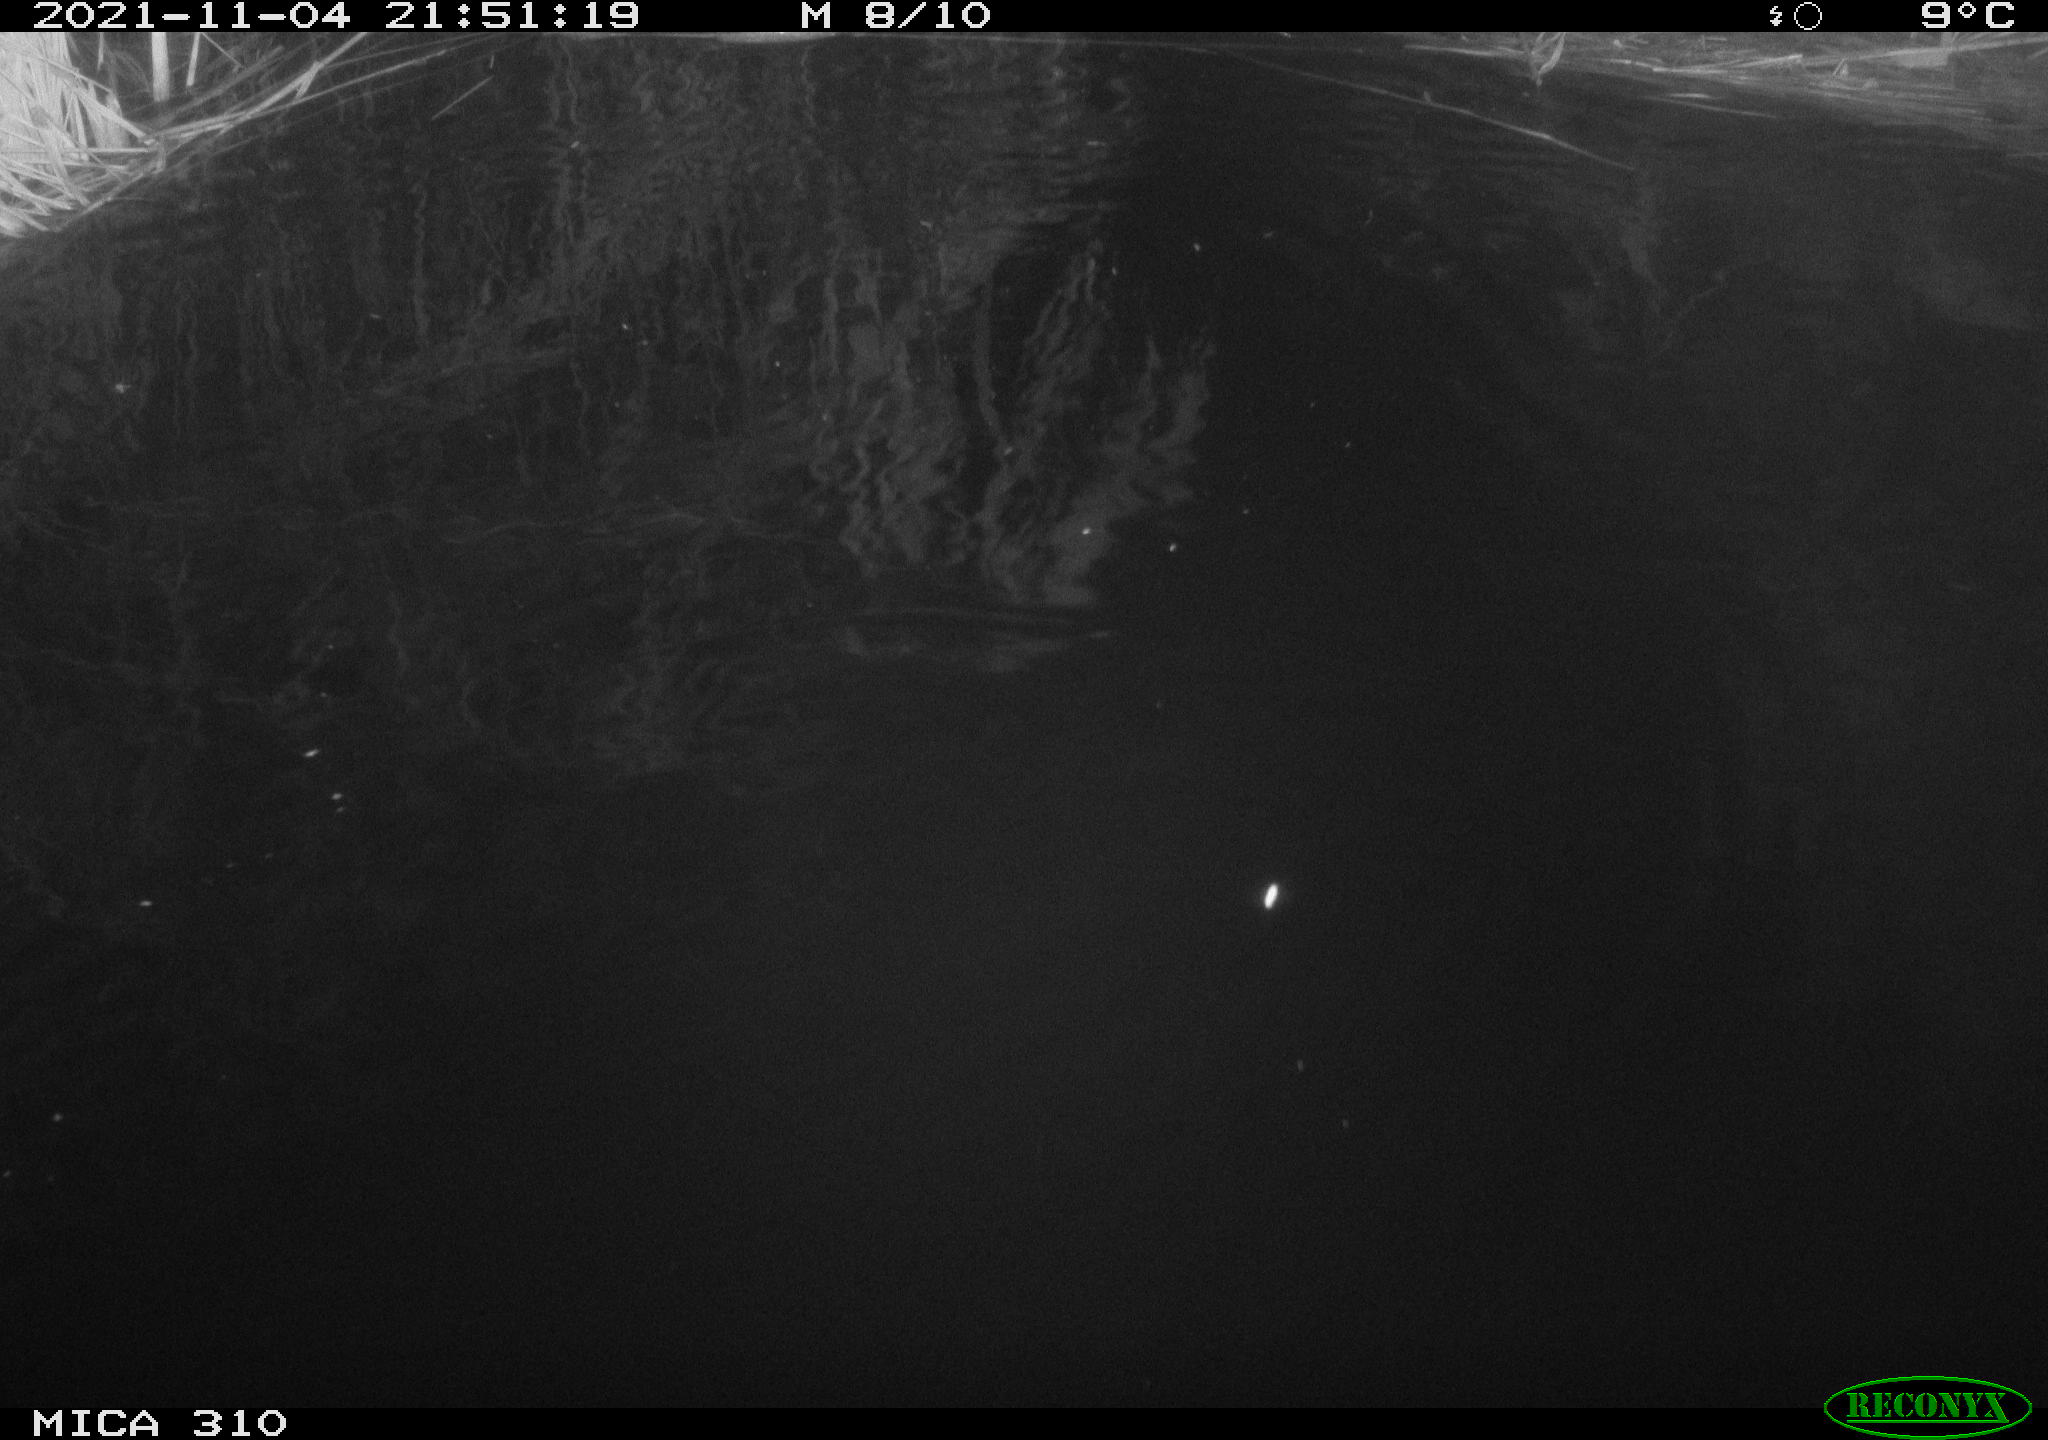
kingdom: Animalia
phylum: Chordata
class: Mammalia
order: Rodentia
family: Muridae
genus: Rattus
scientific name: Rattus norvegicus
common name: Brown rat
